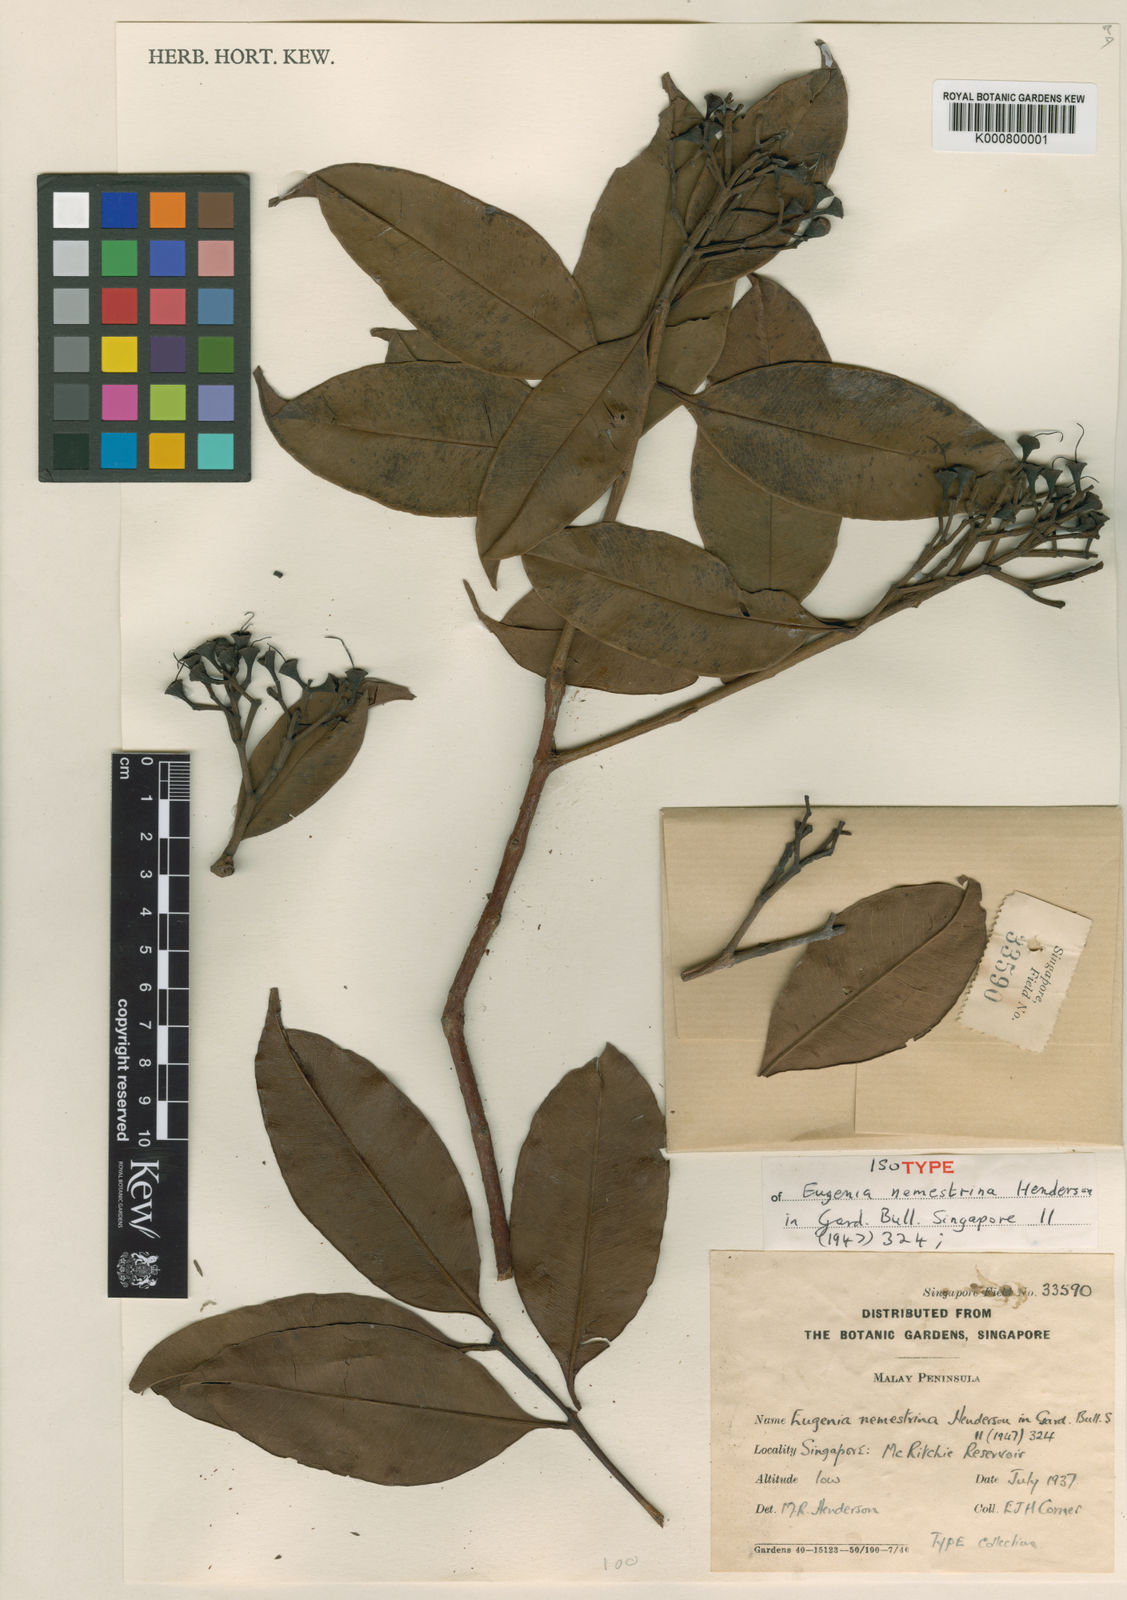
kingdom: Plantae
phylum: Tracheophyta
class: Magnoliopsida
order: Myrtales
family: Myrtaceae
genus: Syzygium
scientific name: Syzygium subcrenatum
